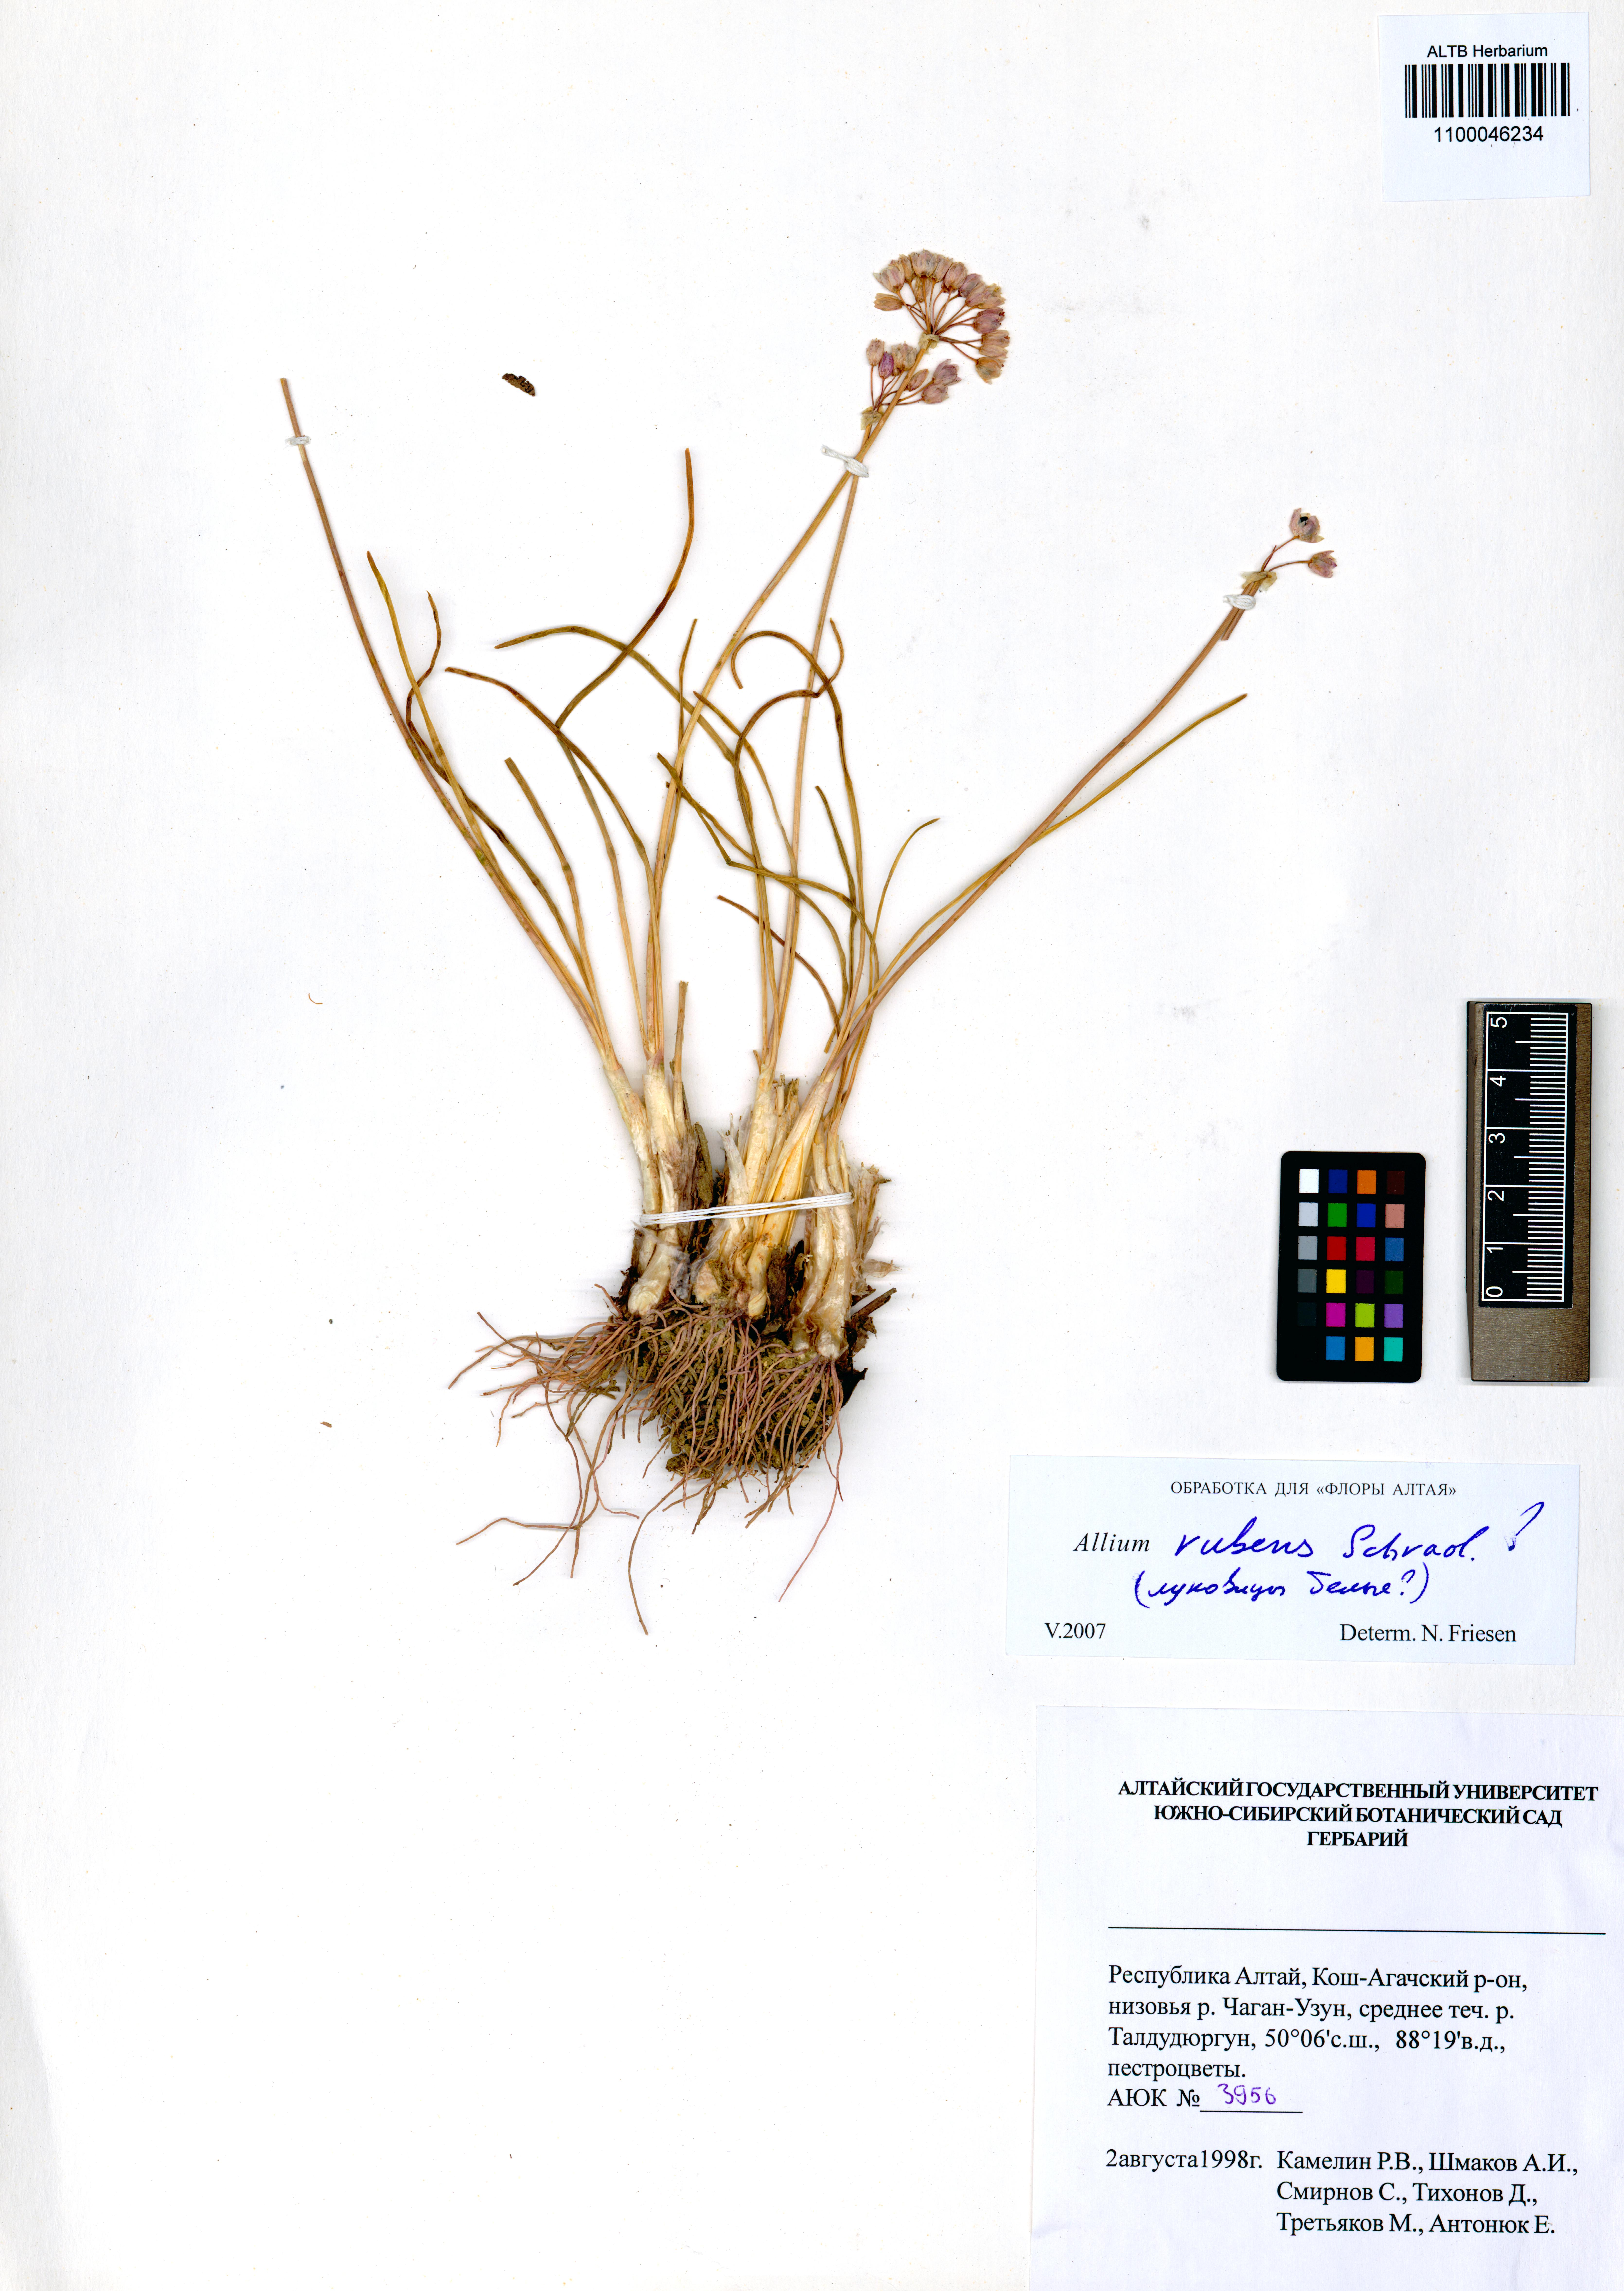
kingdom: Plantae
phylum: Tracheophyta
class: Liliopsida
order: Asparagales
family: Amaryllidaceae
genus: Allium
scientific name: Allium rubens
